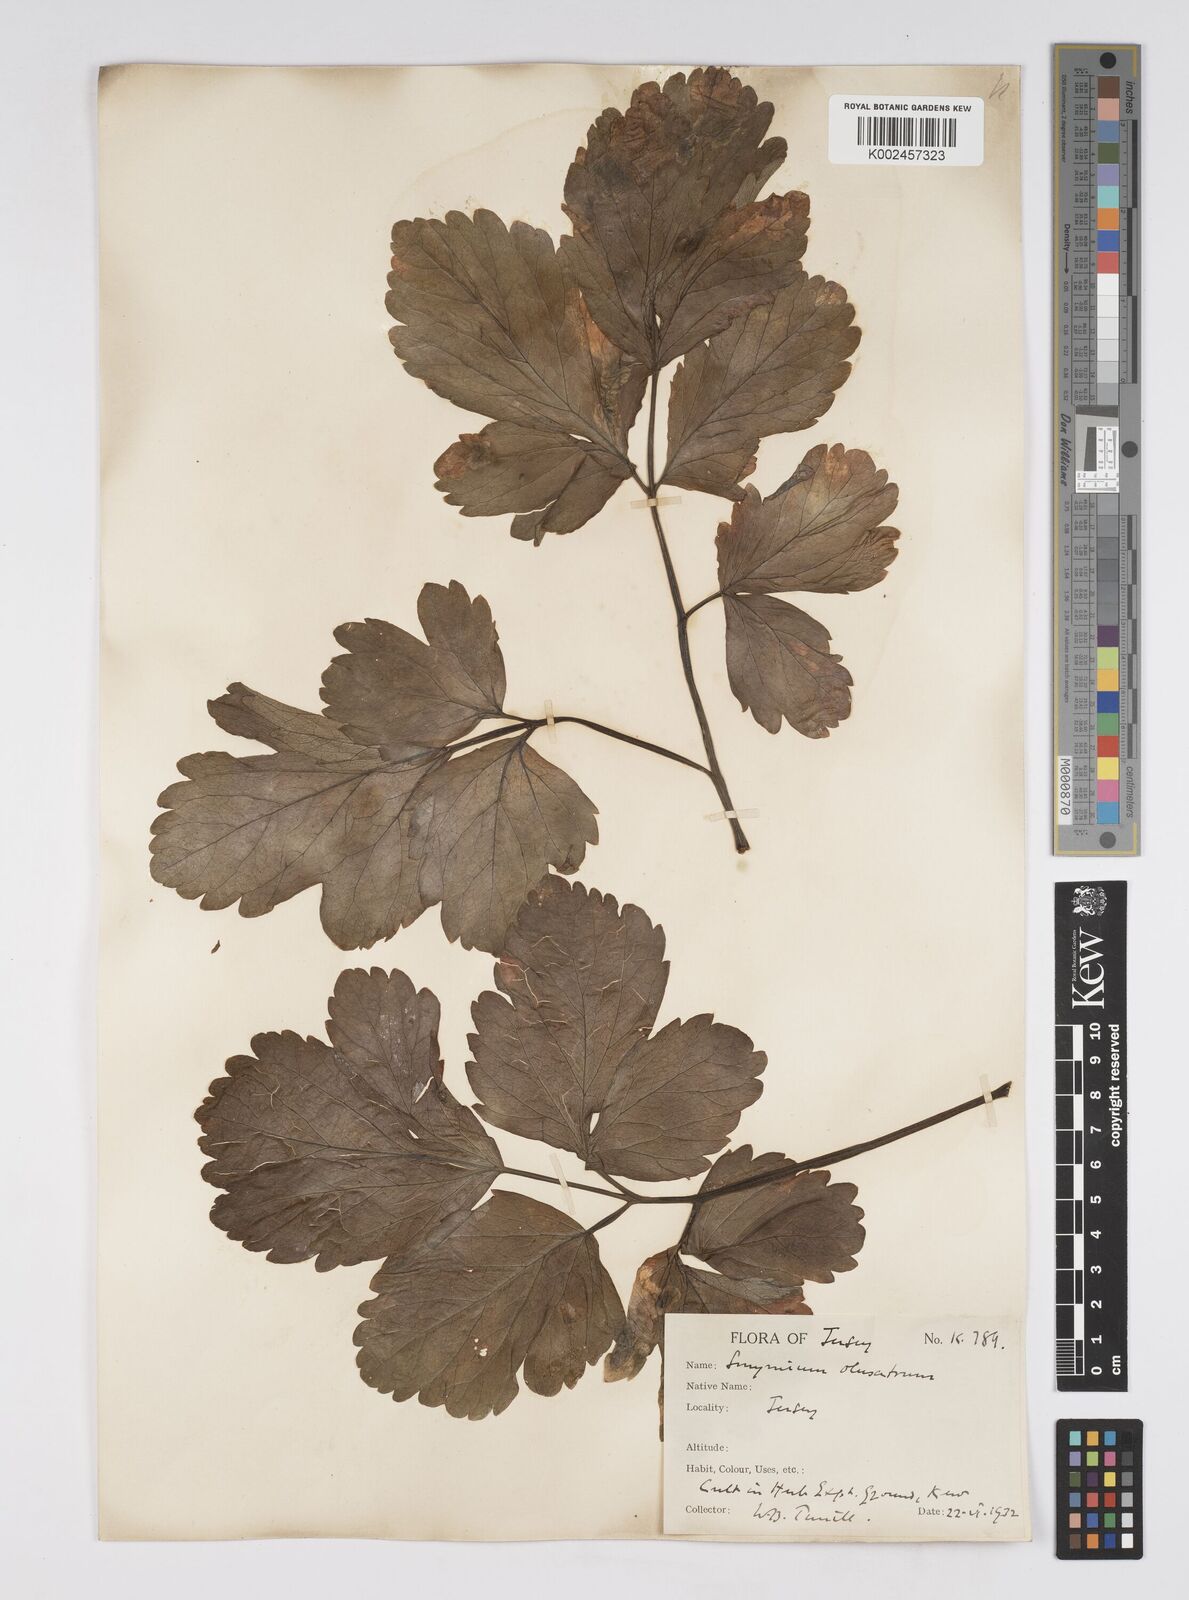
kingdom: Plantae
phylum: Tracheophyta
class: Magnoliopsida
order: Apiales
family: Apiaceae
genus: Smyrnium
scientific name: Smyrnium olusatrum
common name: Alexanders
